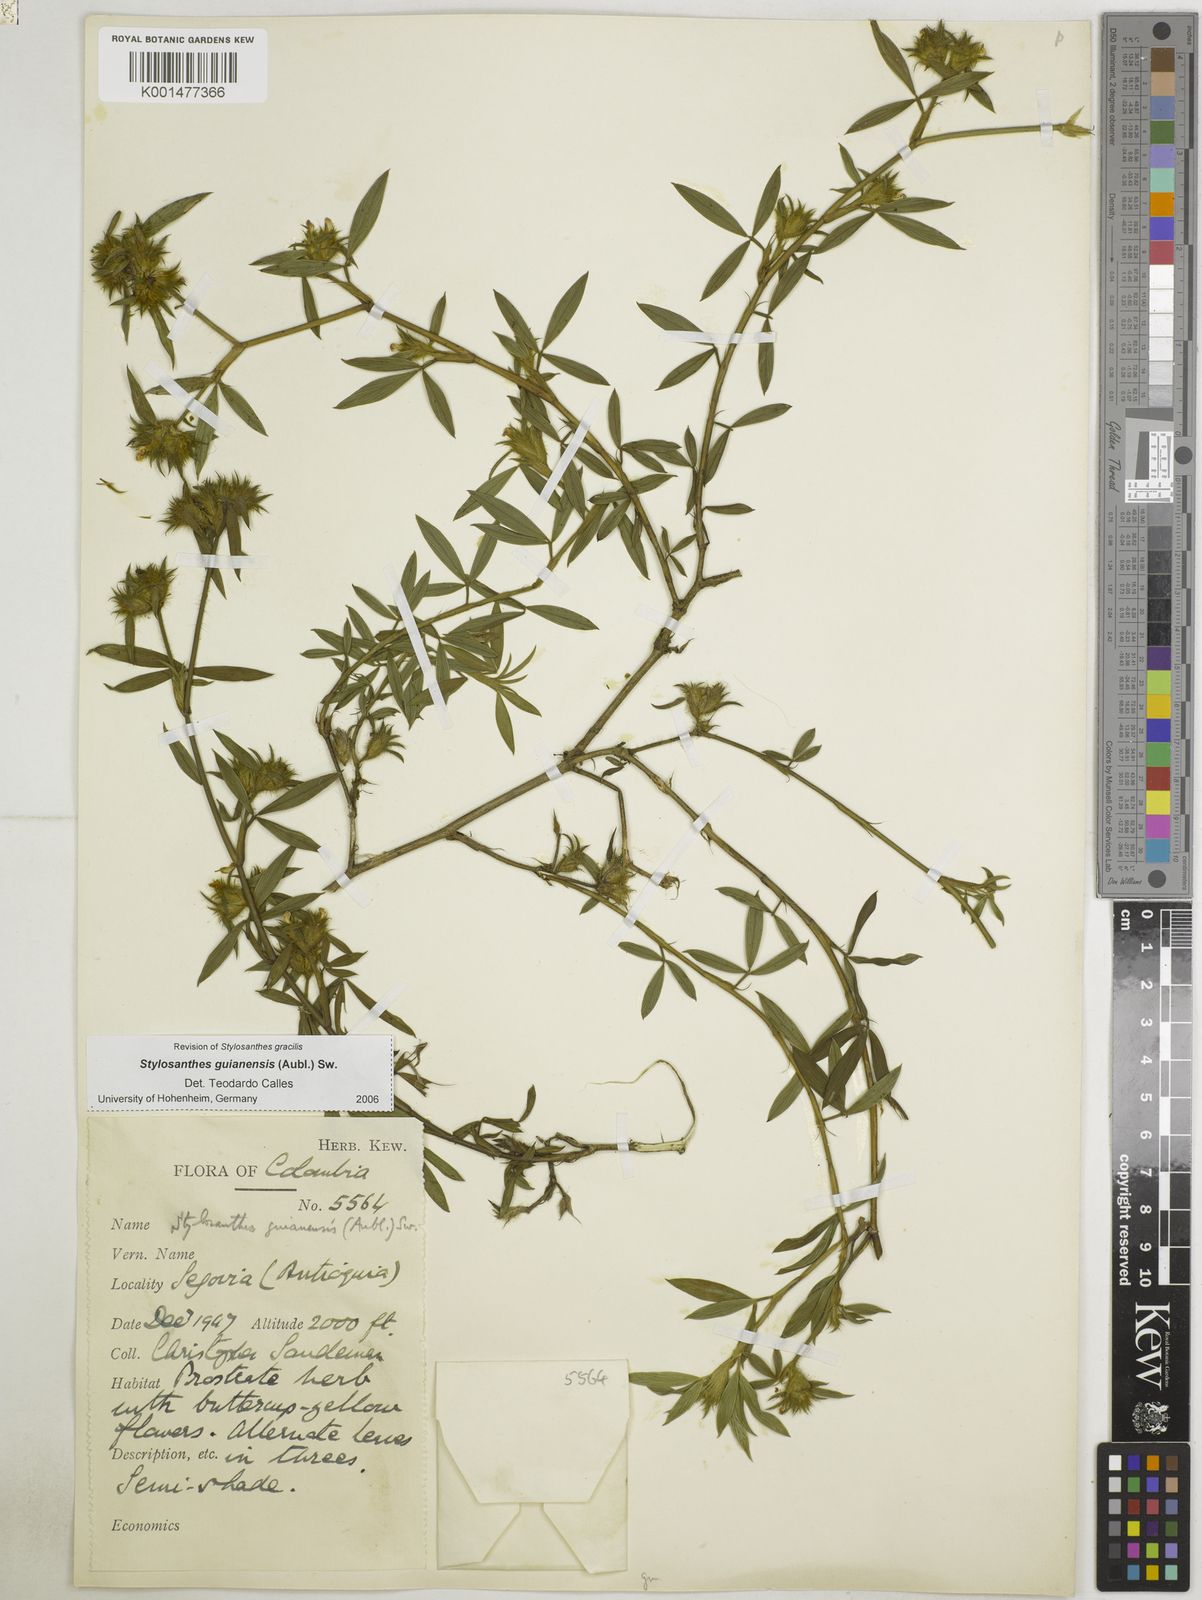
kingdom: Plantae
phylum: Tracheophyta
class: Magnoliopsida
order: Fabales
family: Fabaceae
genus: Stylosanthes
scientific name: Stylosanthes guianensis
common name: Pencil flower
